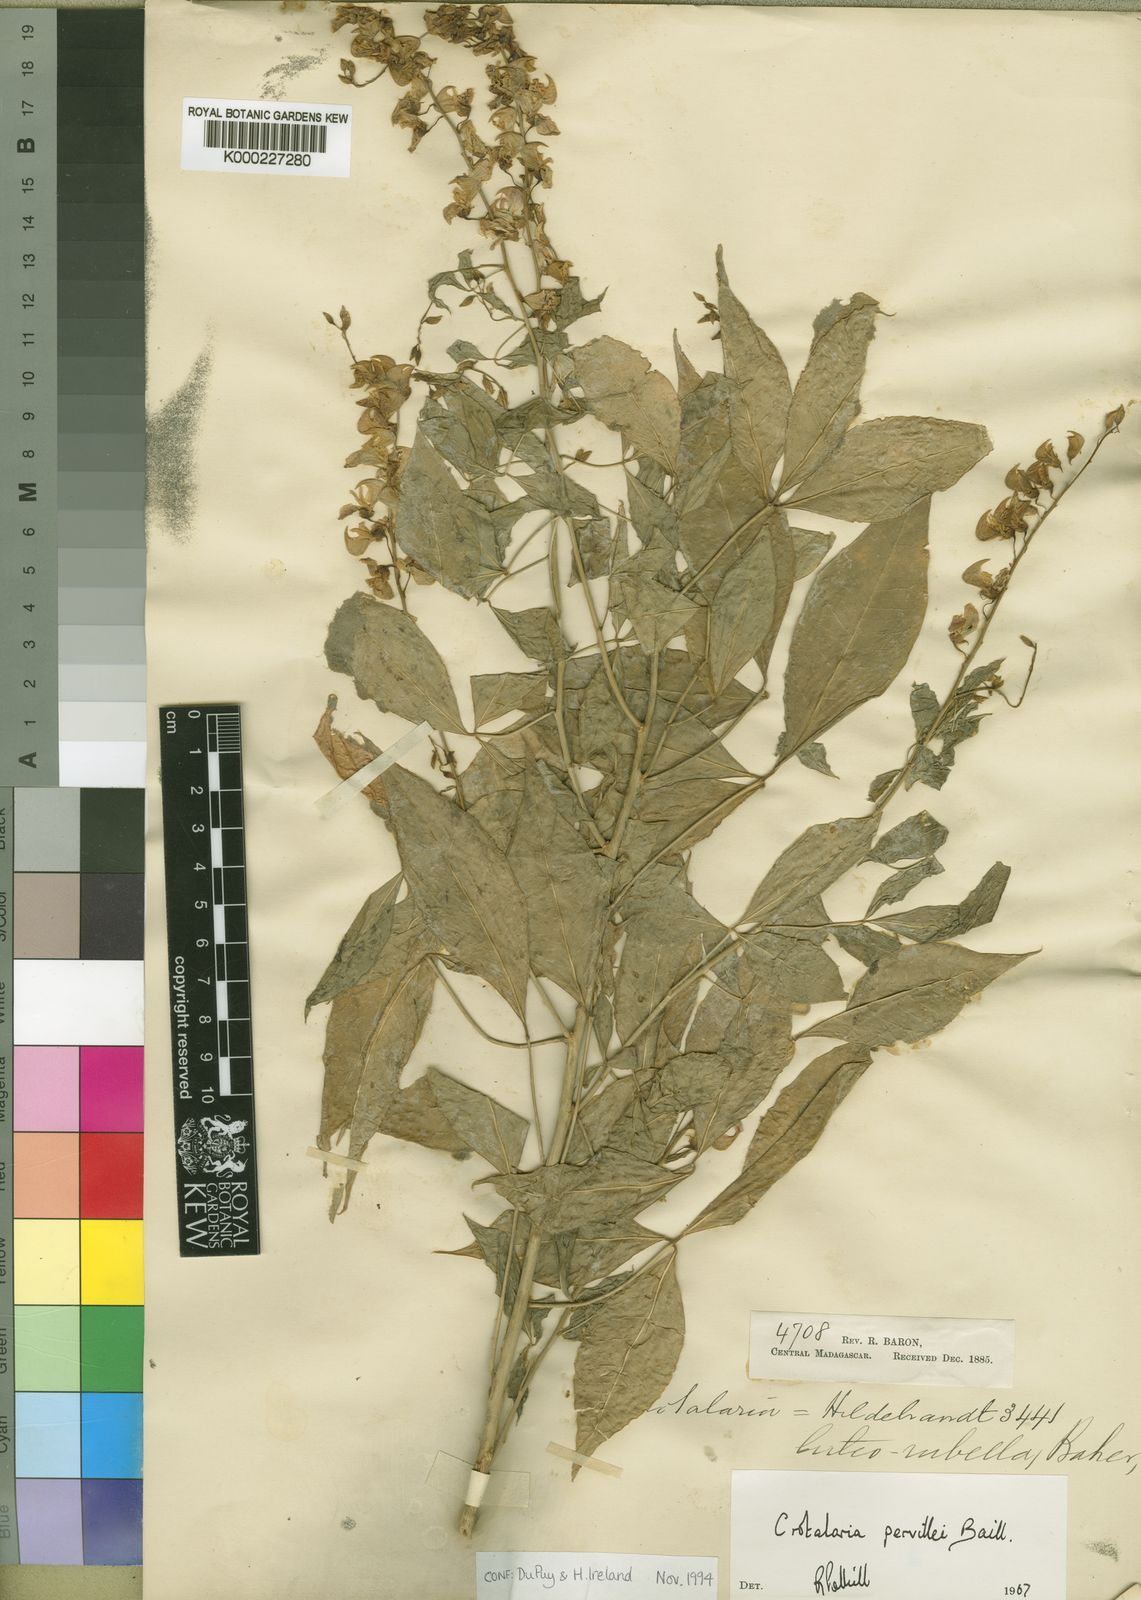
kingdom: Plantae
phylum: Tracheophyta
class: Magnoliopsida
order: Fabales
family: Fabaceae
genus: Crotalaria
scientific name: Crotalaria pervillei
